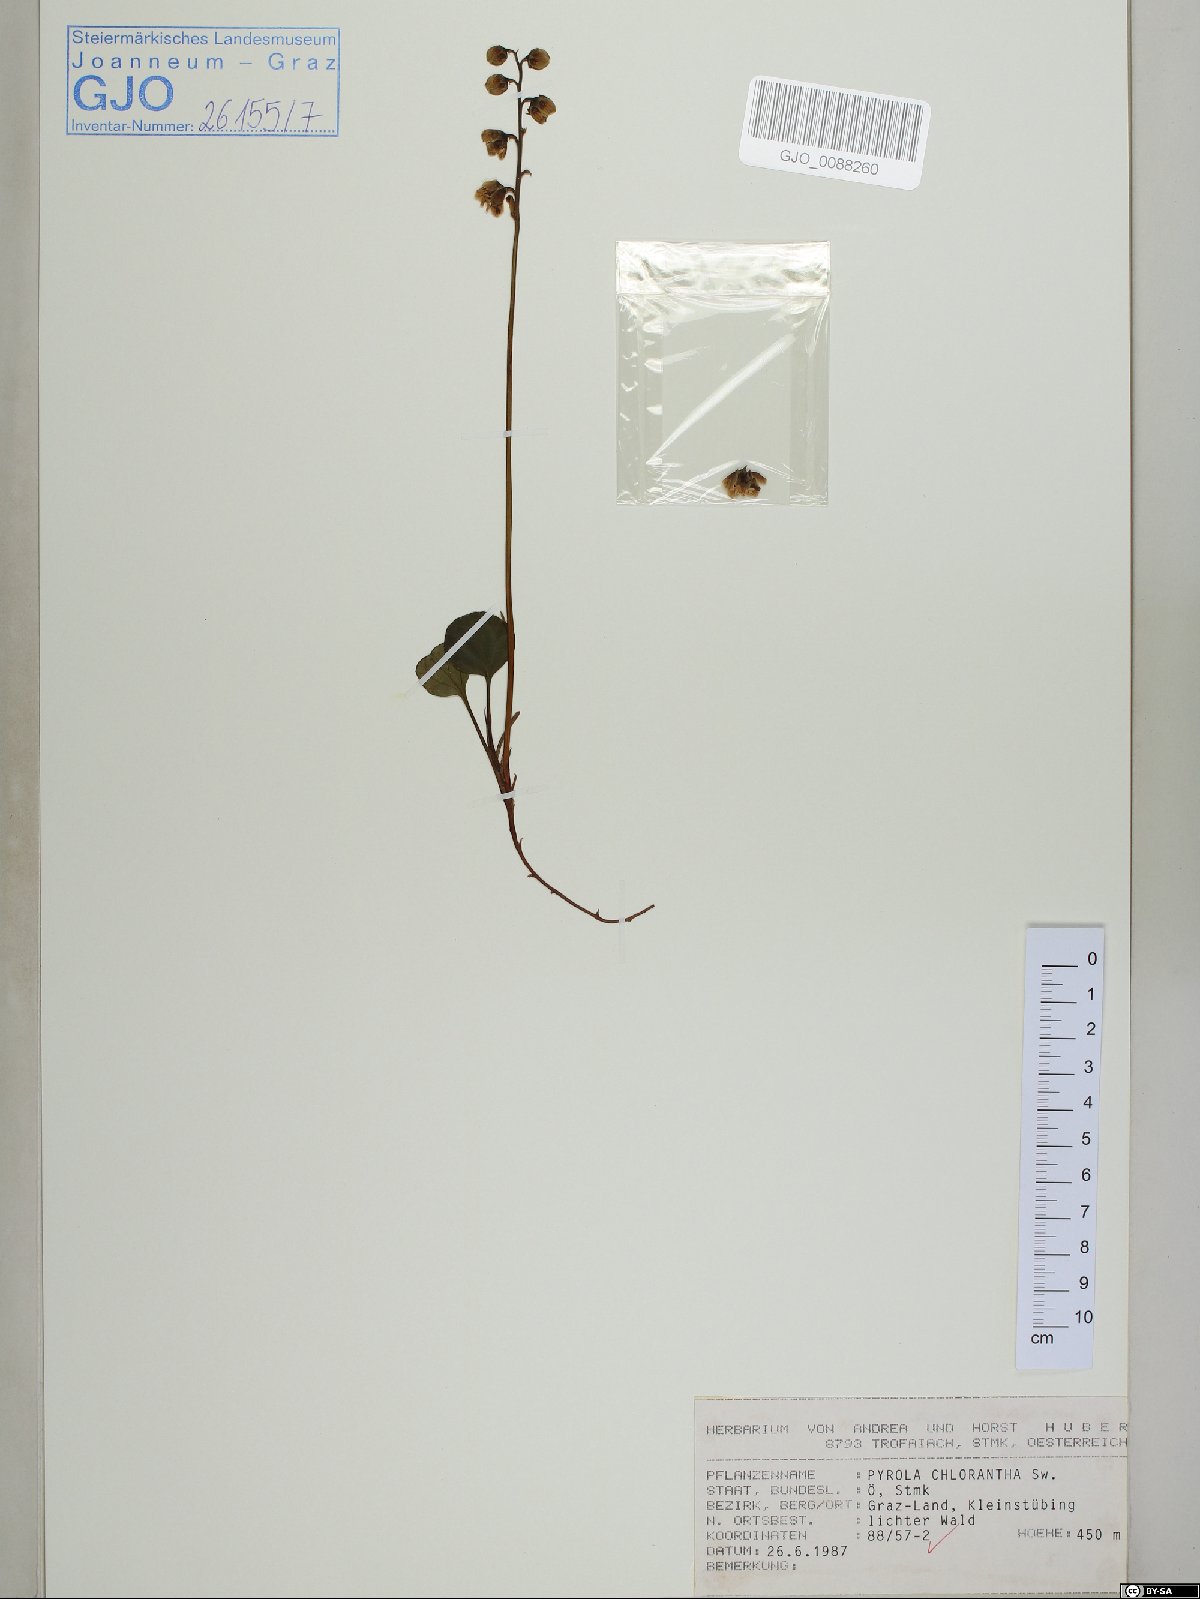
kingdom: Plantae
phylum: Tracheophyta
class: Magnoliopsida
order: Ericales
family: Ericaceae
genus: Pyrola
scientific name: Pyrola chlorantha
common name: Green wintergreen
